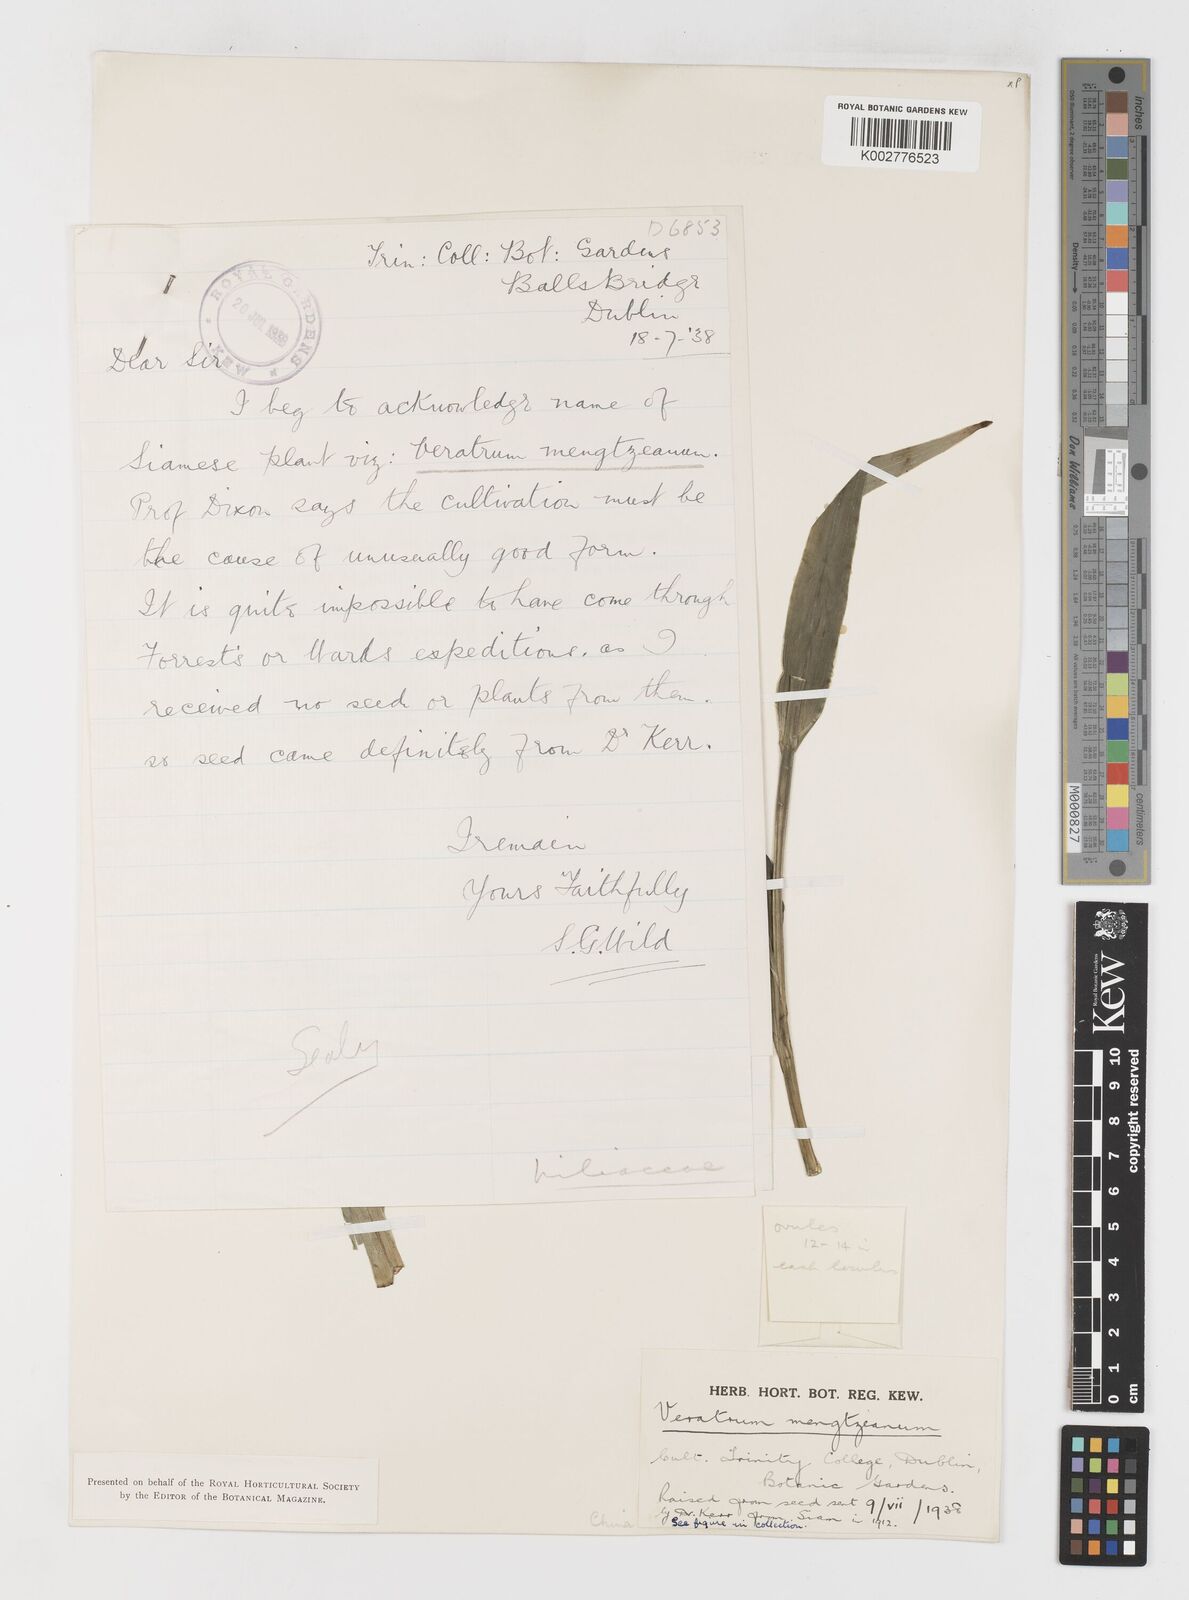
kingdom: Plantae
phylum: Tracheophyta
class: Liliopsida
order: Liliales
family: Melanthiaceae
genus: Veratrum
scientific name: Veratrum mengtzeanum
